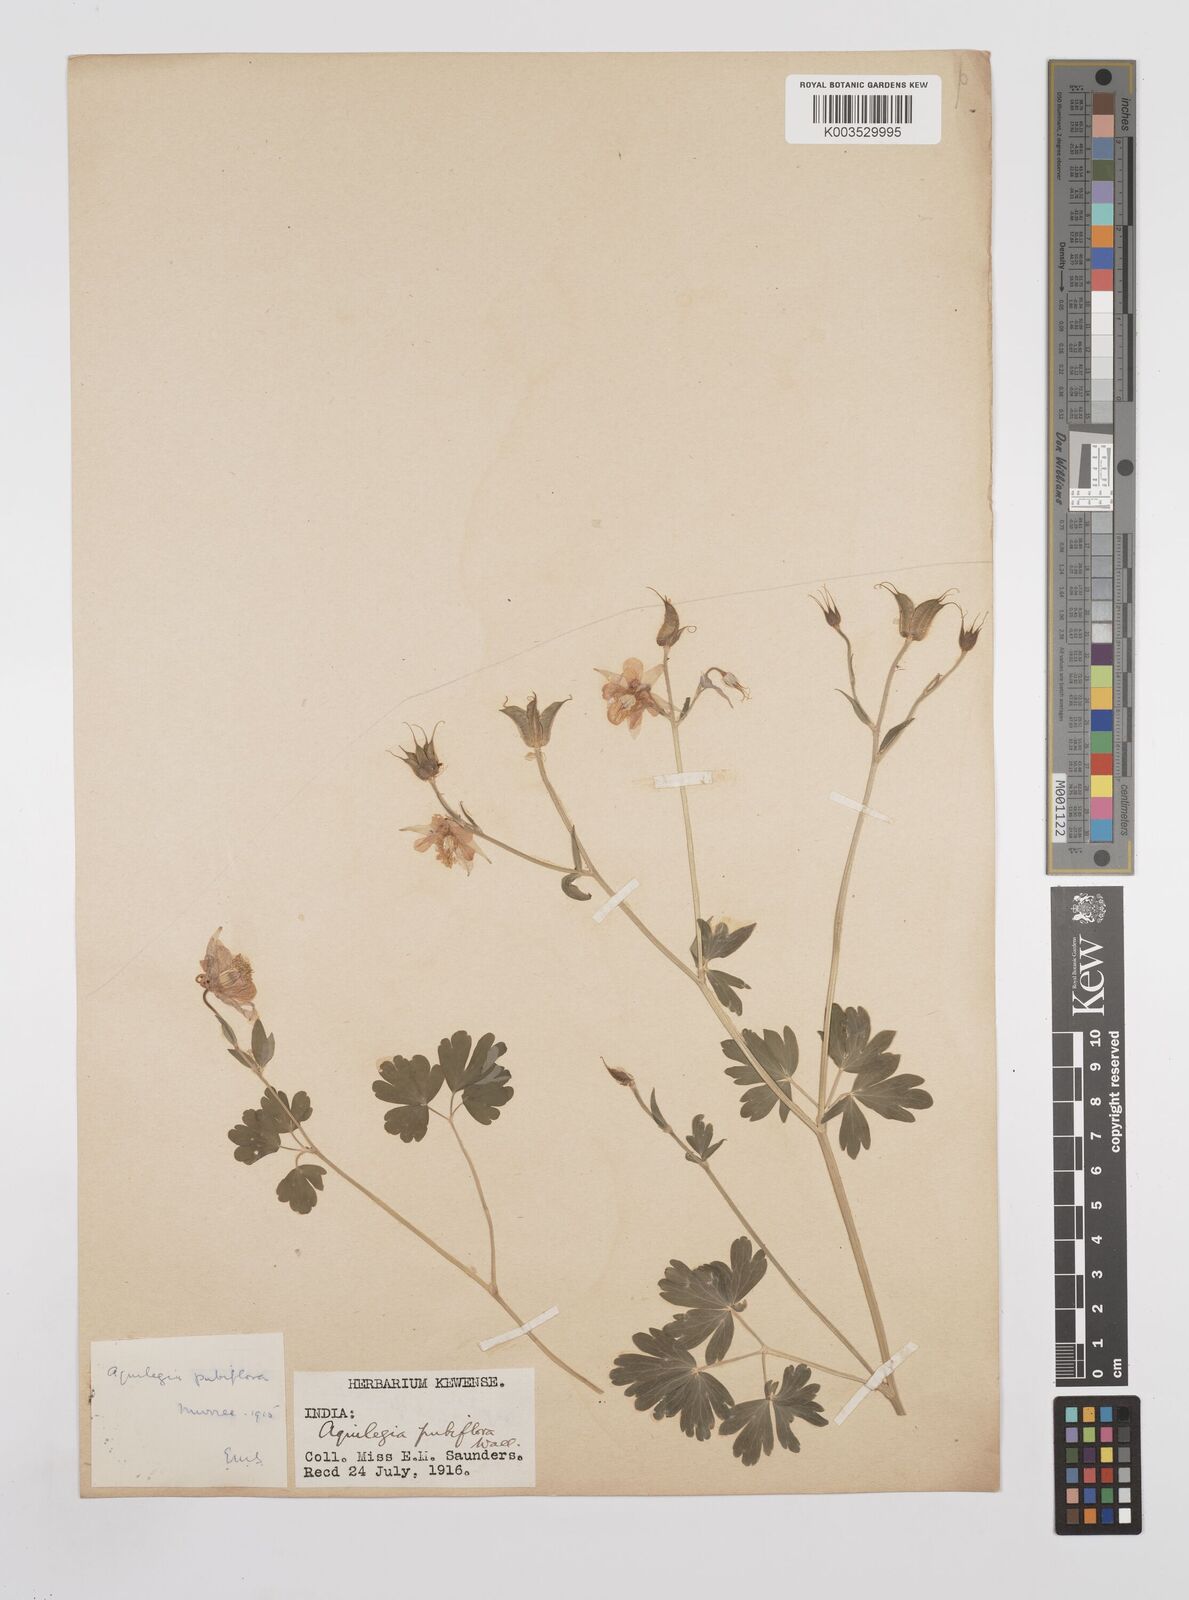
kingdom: Plantae
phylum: Tracheophyta
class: Magnoliopsida
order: Ranunculales
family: Ranunculaceae
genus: Aquilegia
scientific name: Aquilegia pubiflora
